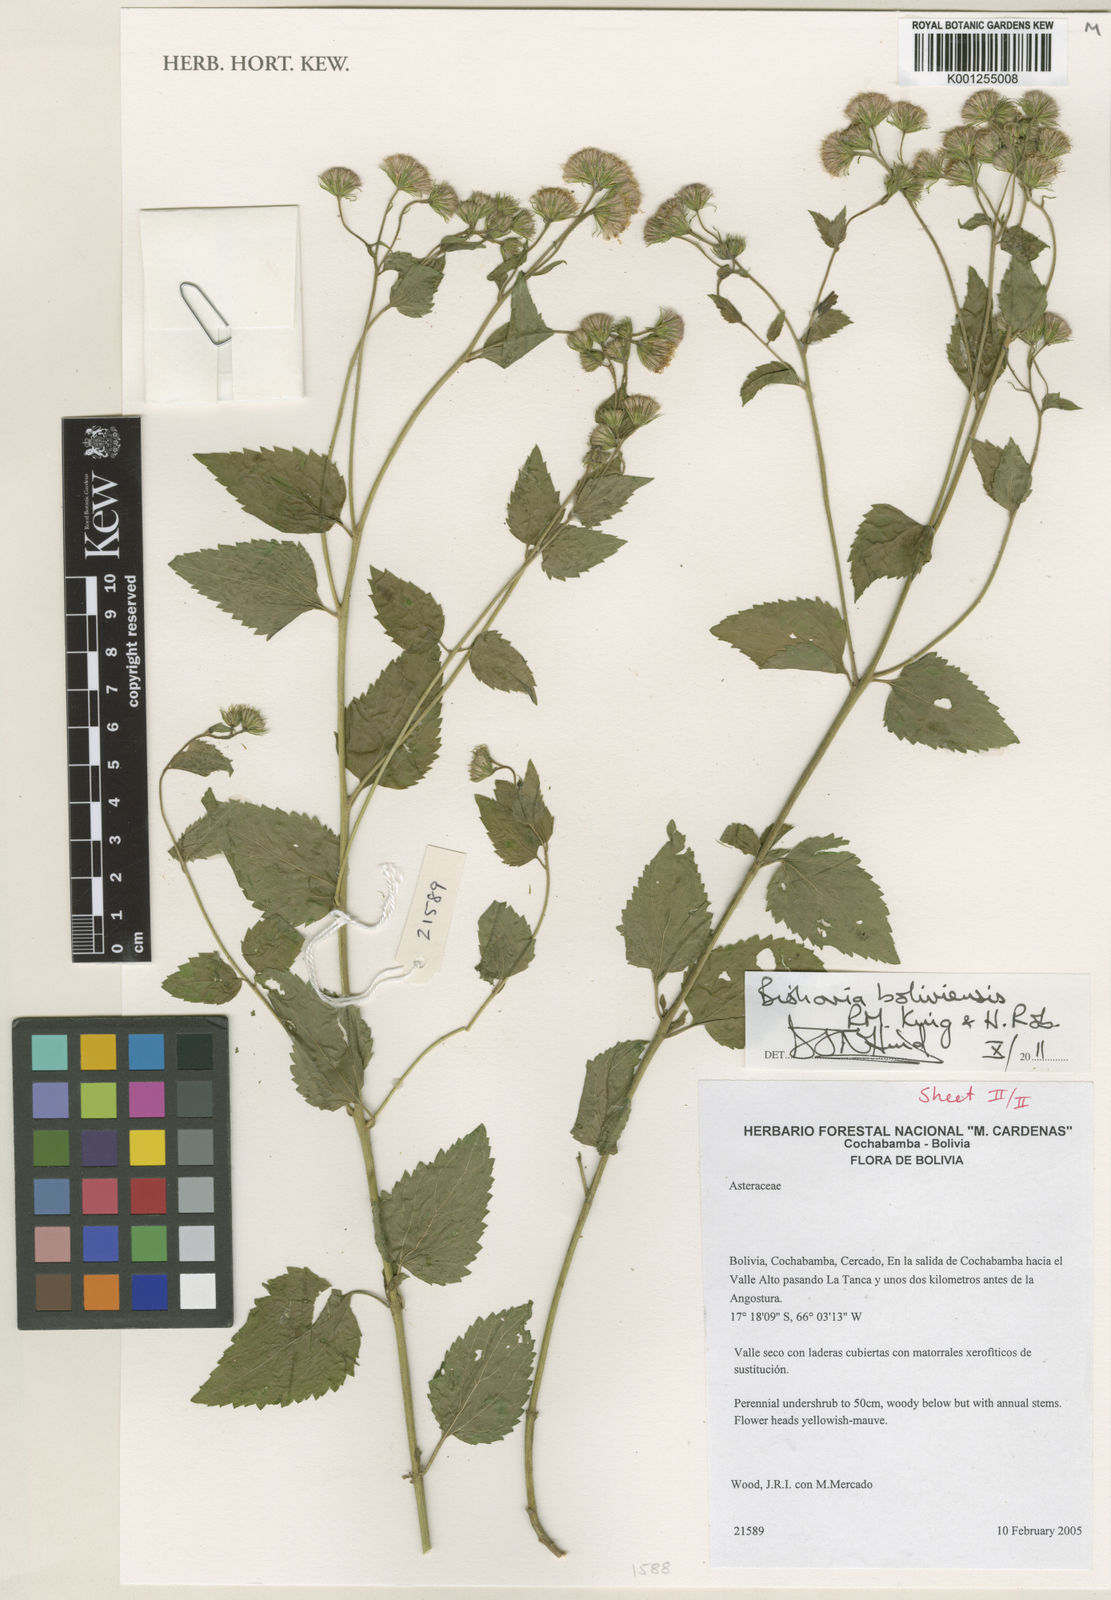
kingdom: Plantae
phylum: Tracheophyta
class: Magnoliopsida
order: Asterales
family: Asteraceae
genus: Bishovia
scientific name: Bishovia boliviensis
